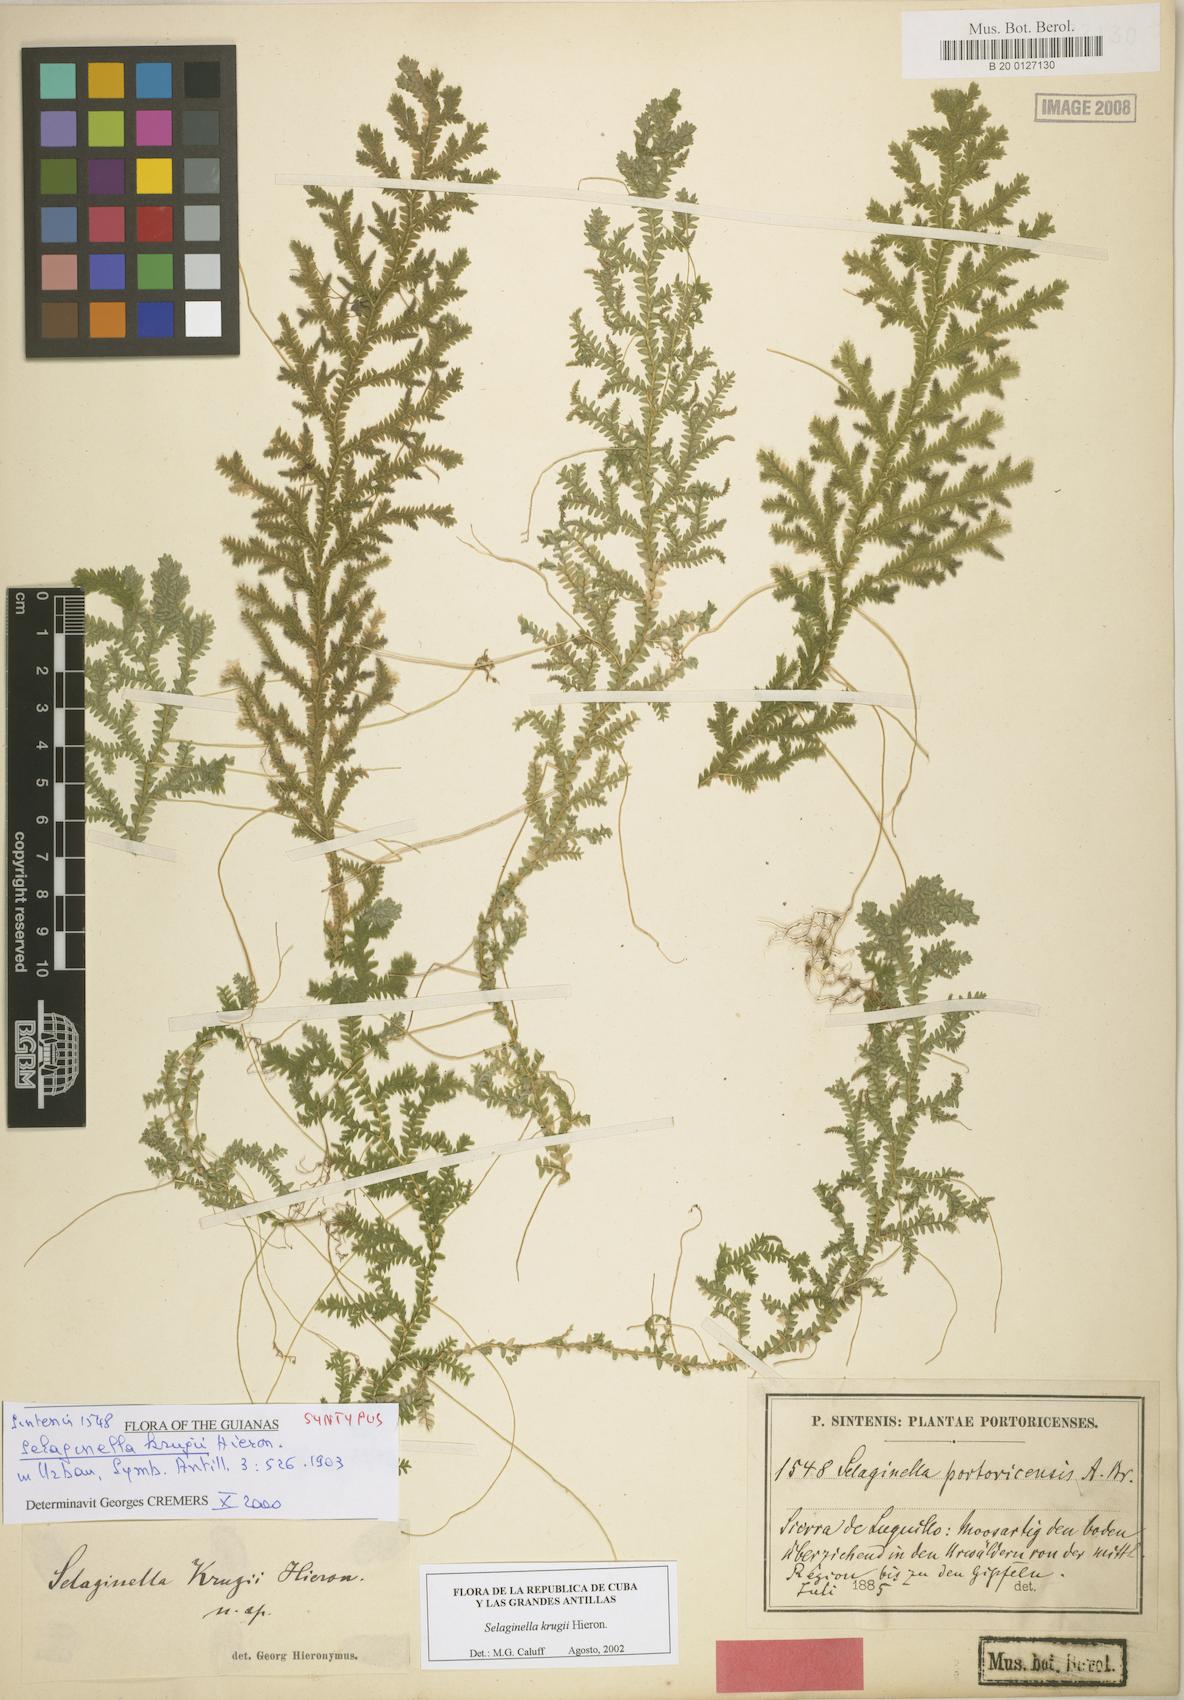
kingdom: Plantae
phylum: Tracheophyta
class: Lycopodiopsida
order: Selaginellales
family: Selaginellaceae
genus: Selaginella
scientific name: Selaginella krugii
